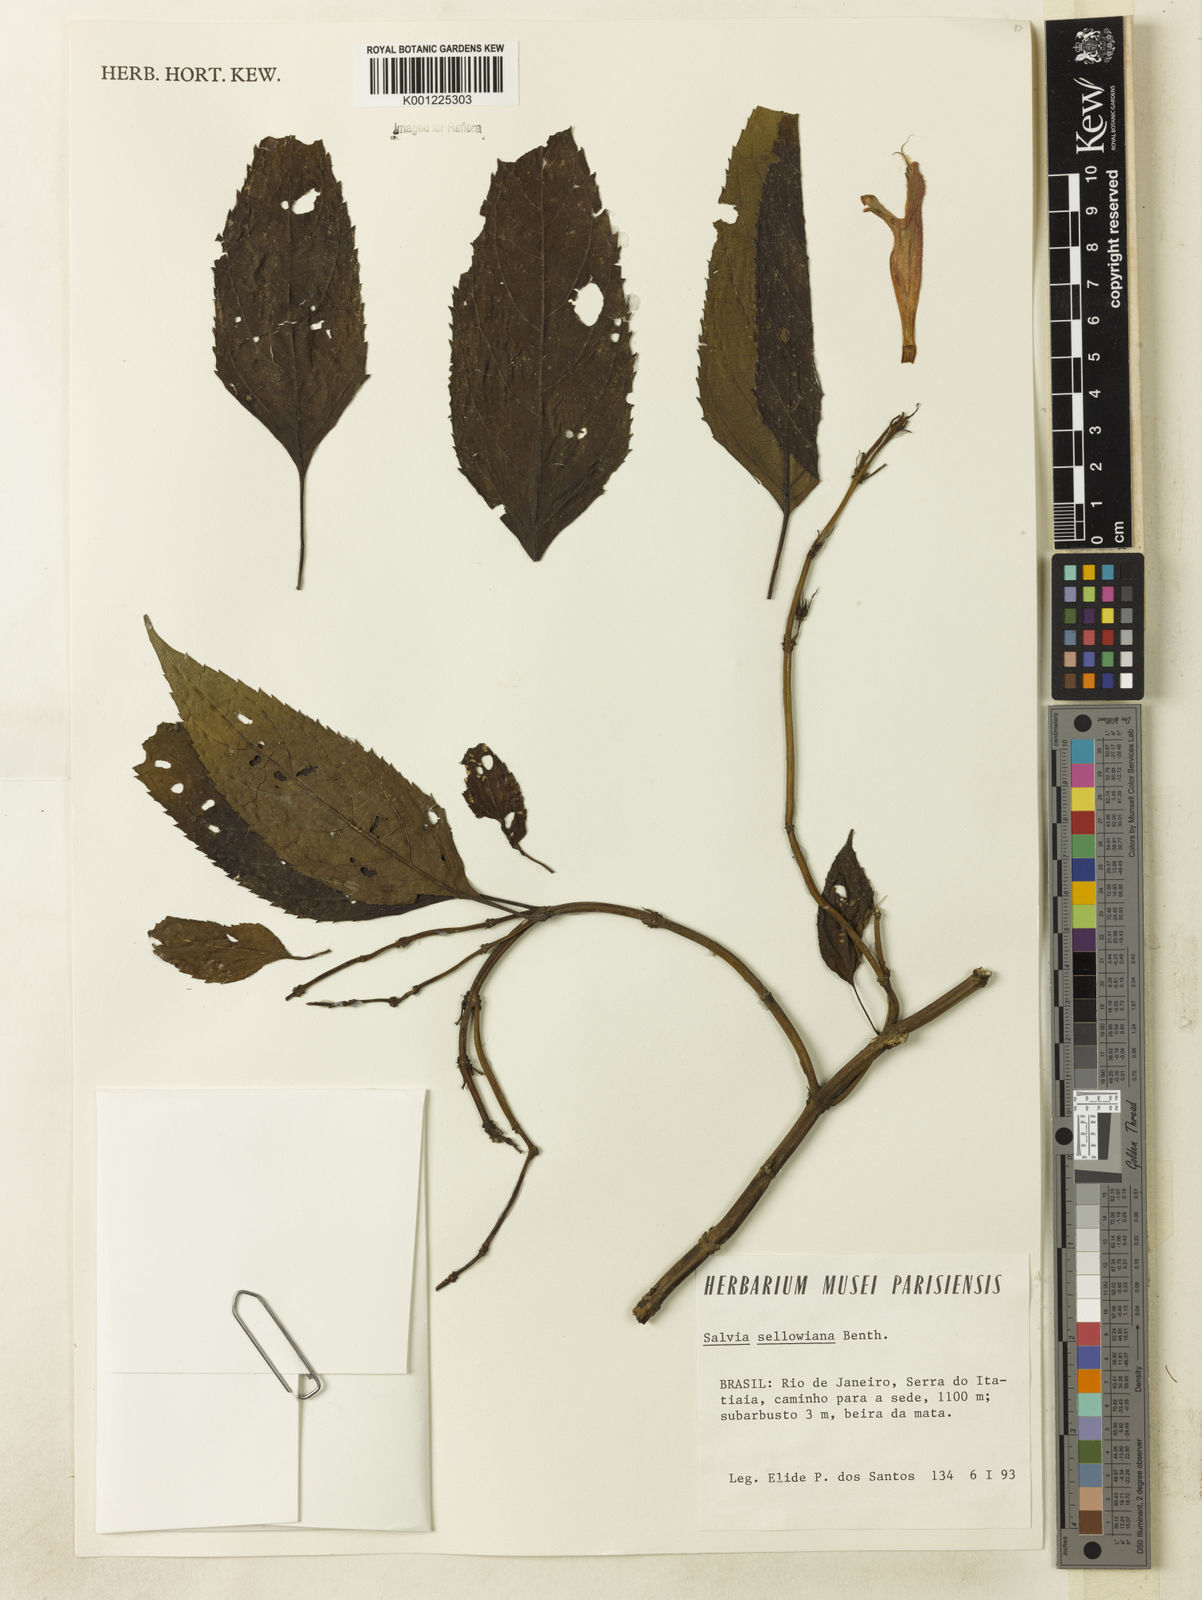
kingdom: Plantae
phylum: Tracheophyta
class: Magnoliopsida
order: Lamiales
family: Lamiaceae
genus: Salvia
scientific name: Salvia sellowiana
